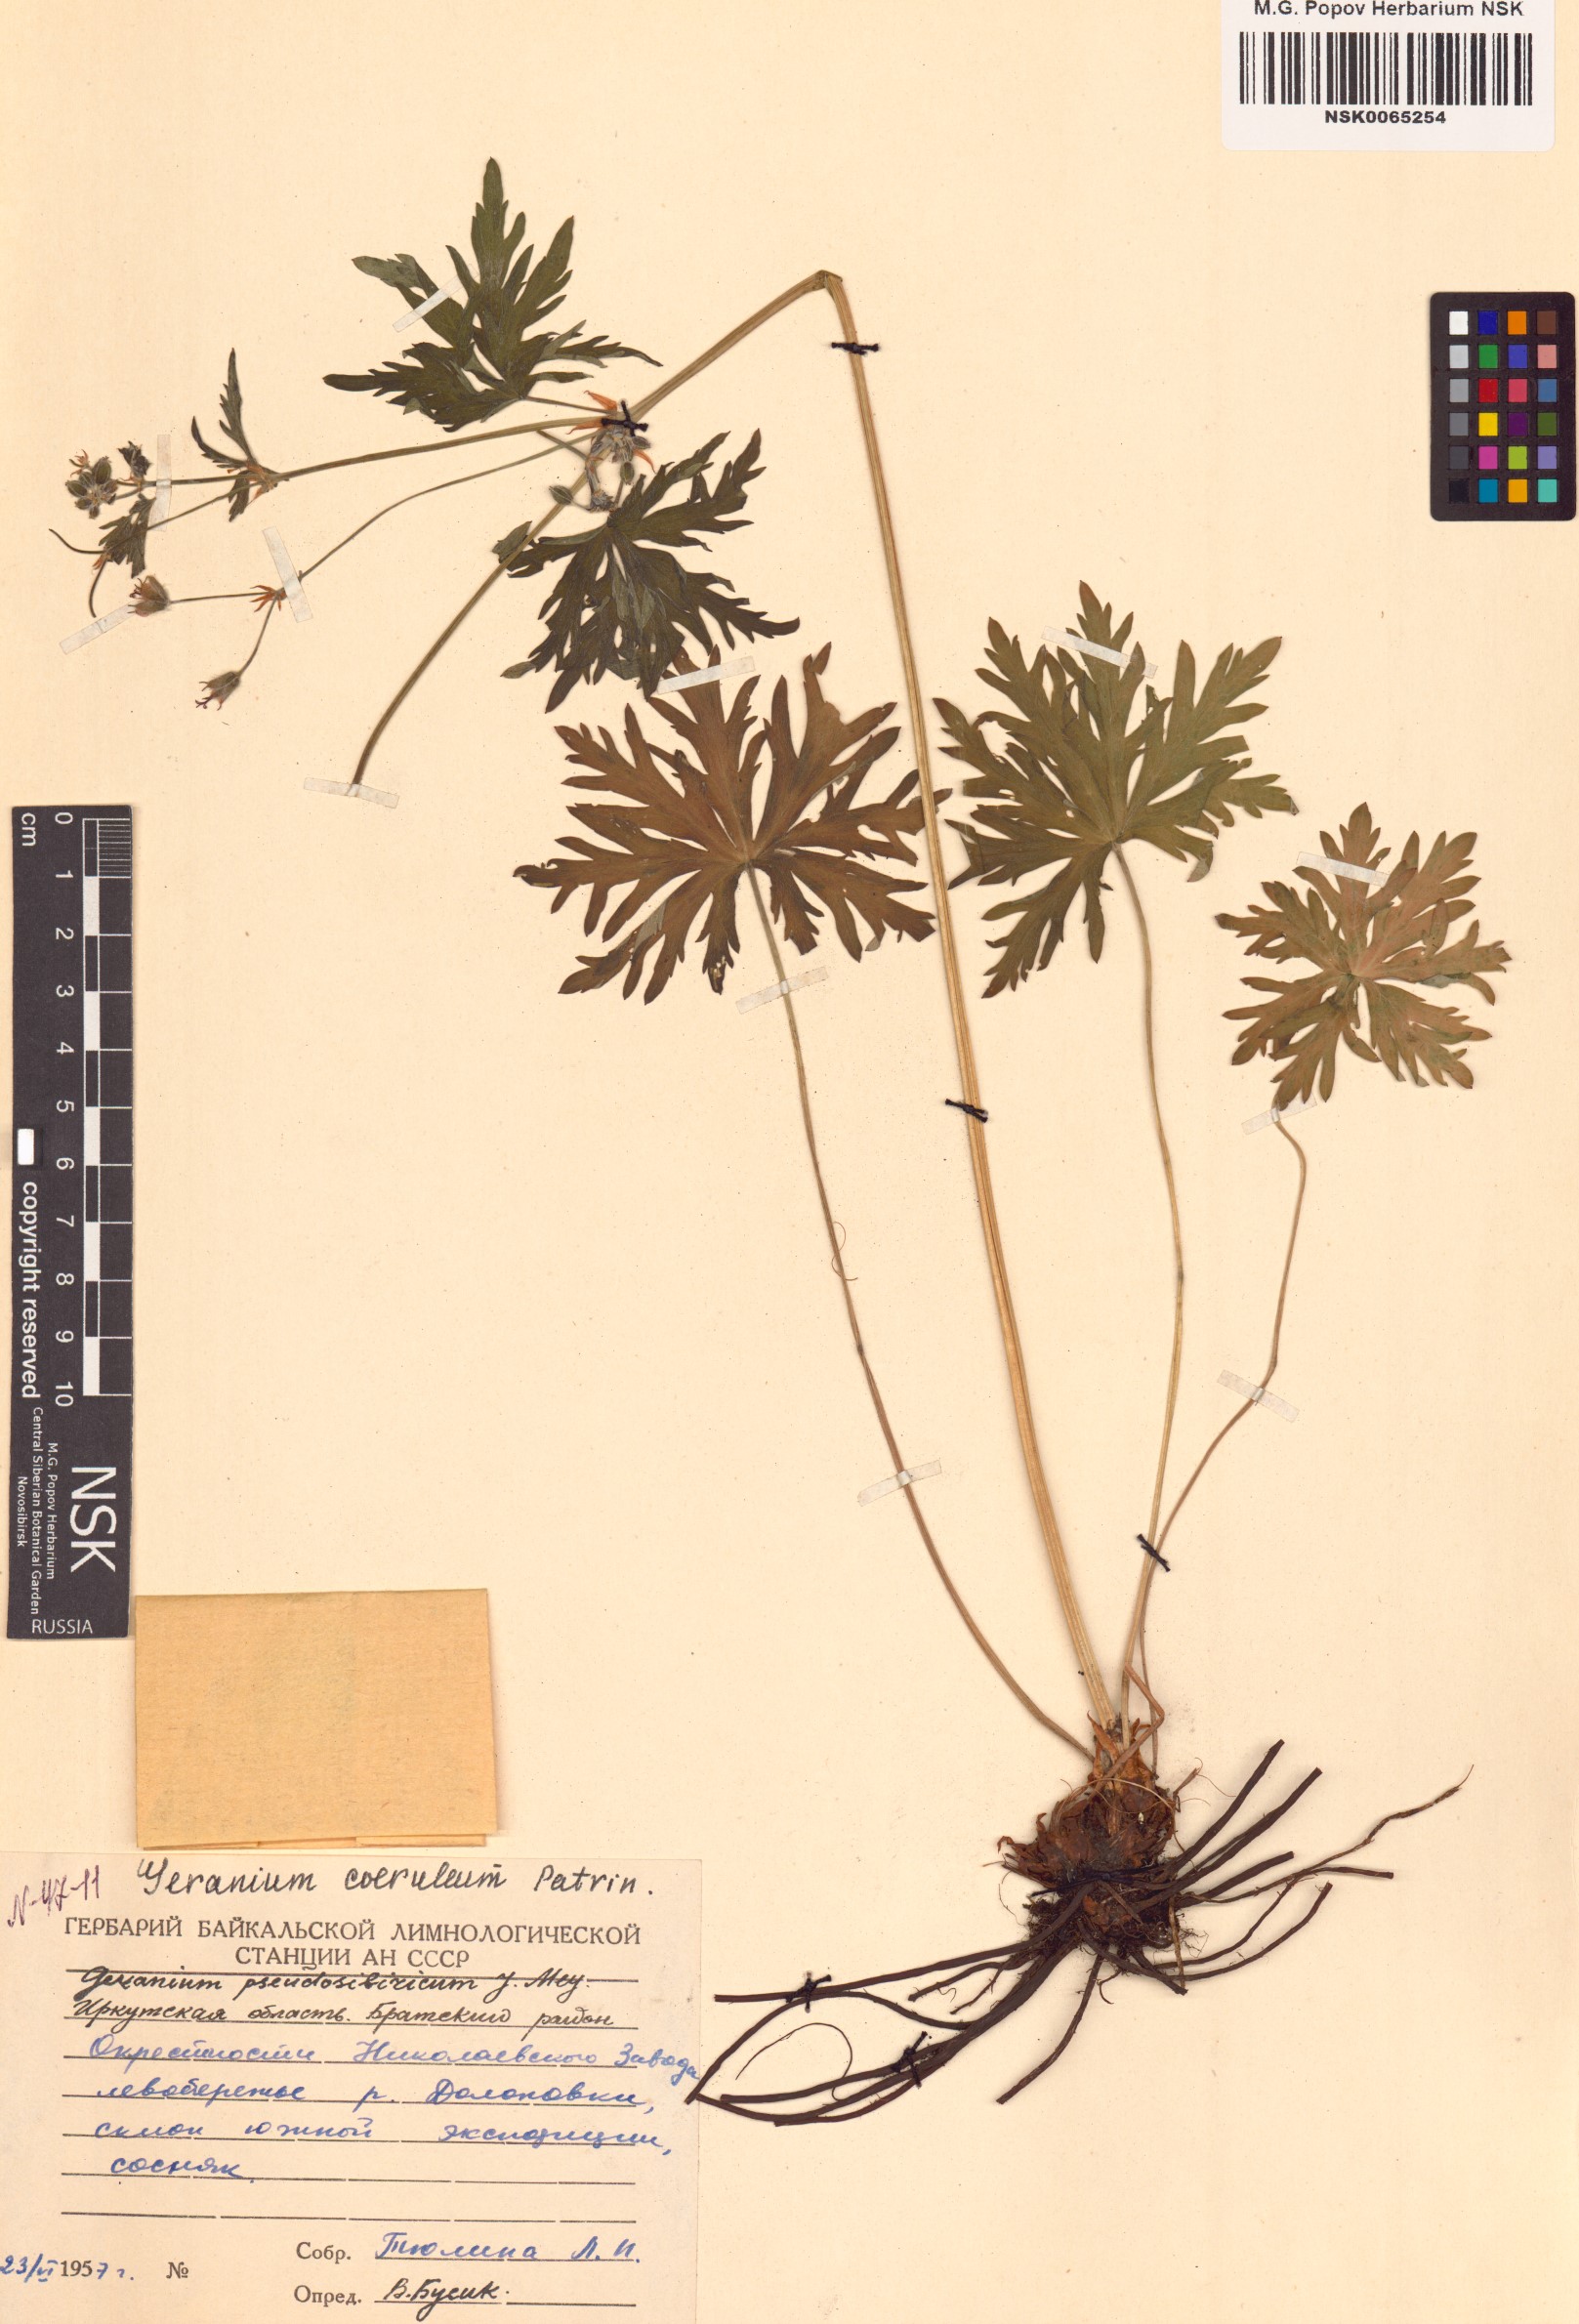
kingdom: Plantae
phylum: Tracheophyta
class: Magnoliopsida
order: Geraniales
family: Geraniaceae
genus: Geranium
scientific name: Geranium pseudosibiricum
